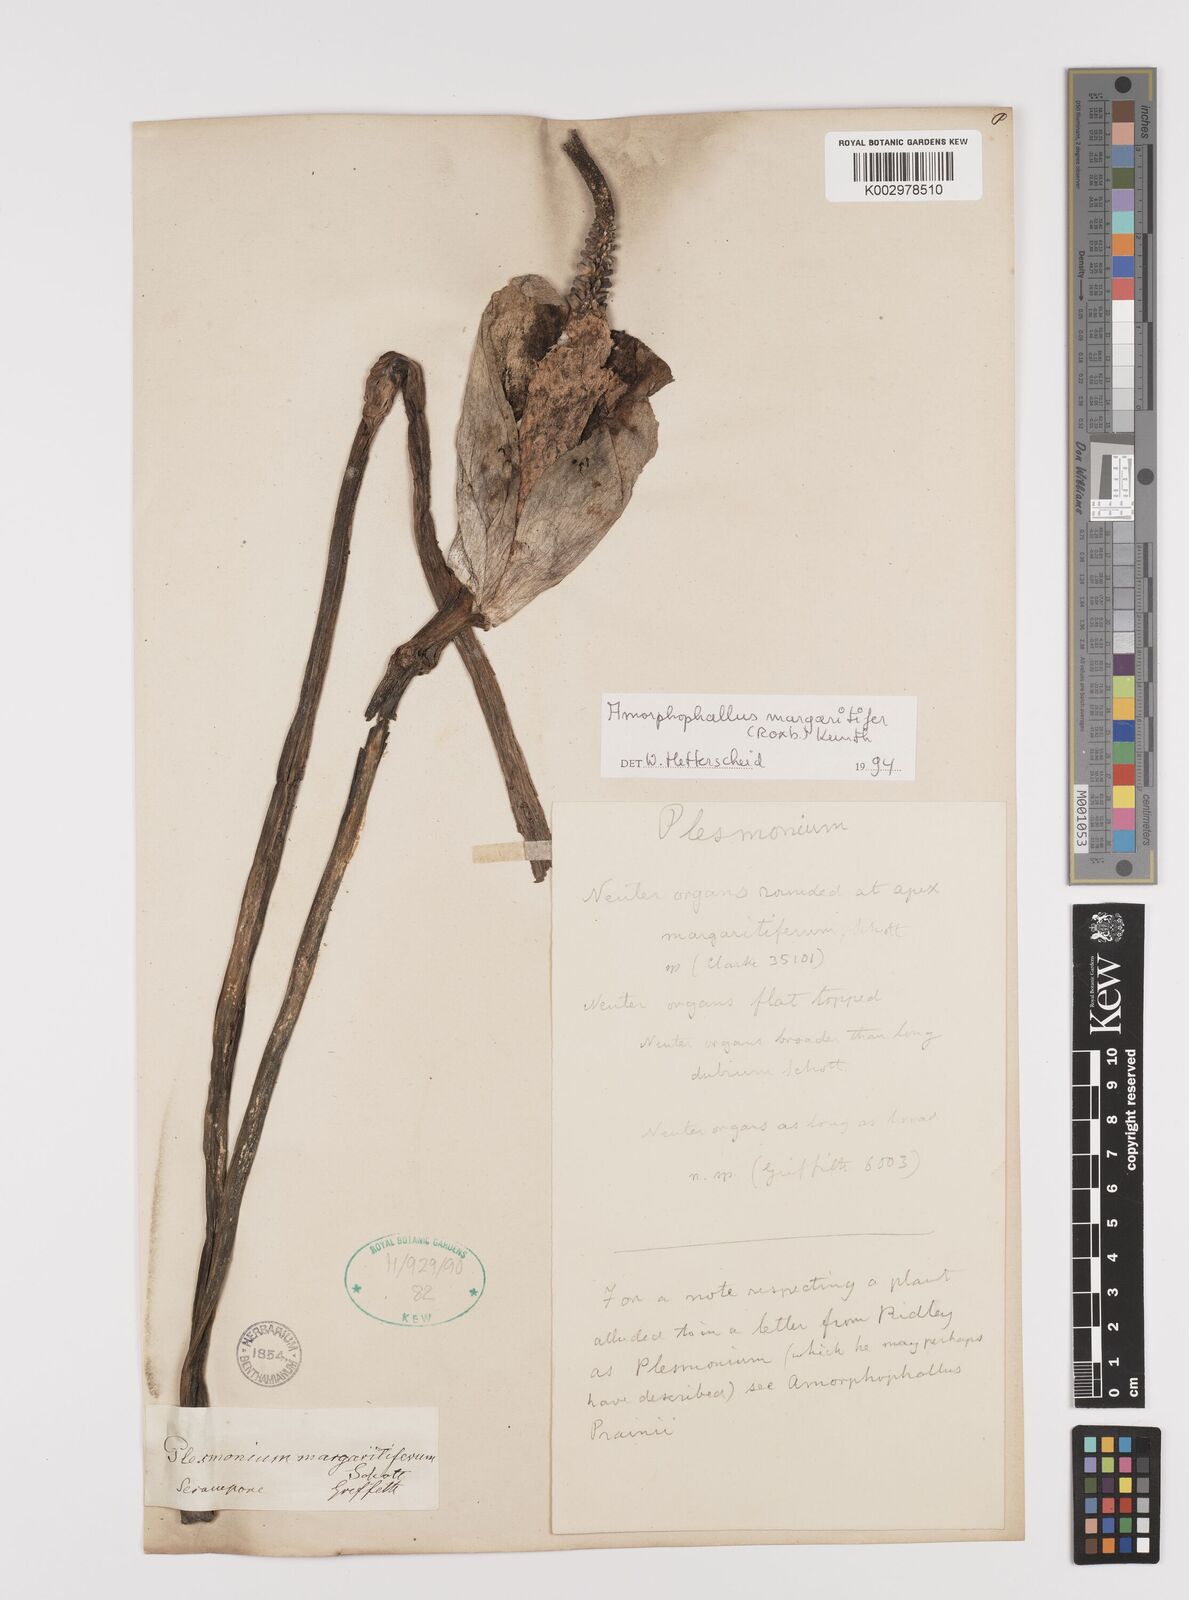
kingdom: Plantae
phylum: Tracheophyta
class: Liliopsida
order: Alismatales
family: Araceae
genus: Amorphophallus
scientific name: Amorphophallus margaritifer
